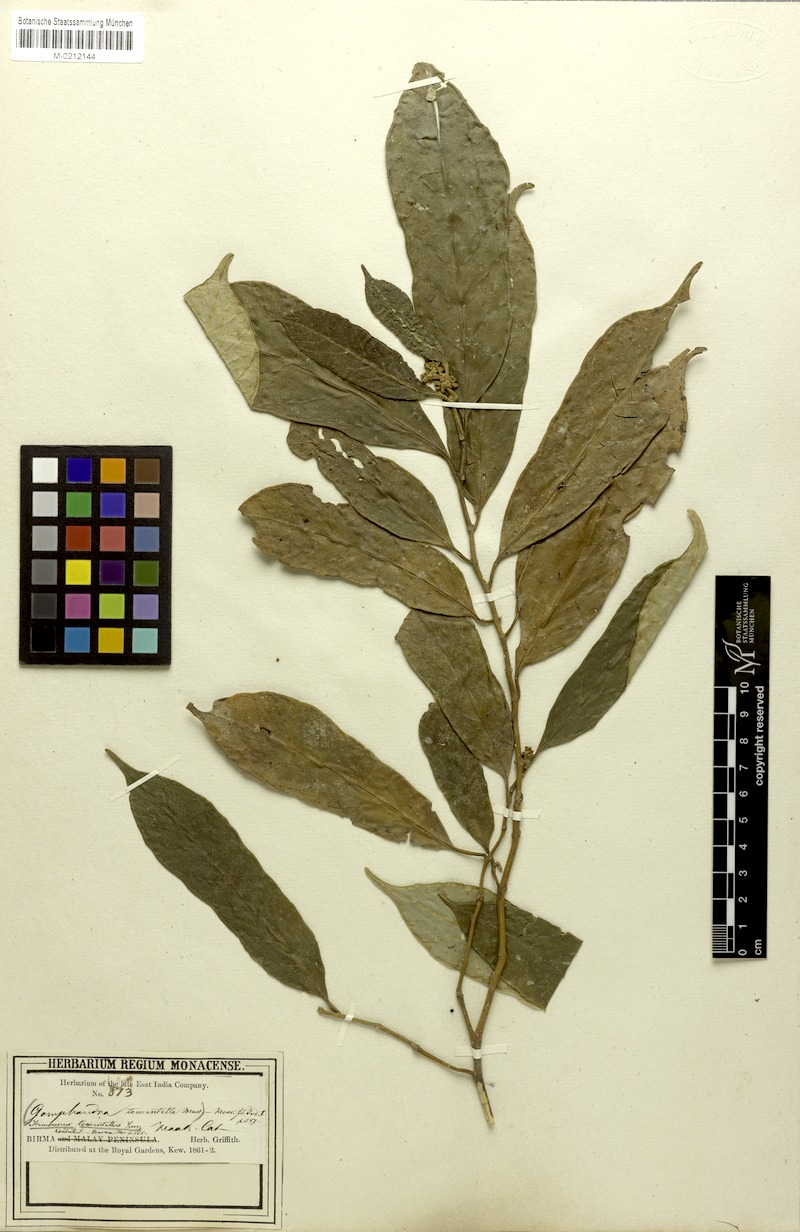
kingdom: Plantae
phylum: Tracheophyta
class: Magnoliopsida
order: Cardiopteridales
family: Stemonuraceae
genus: Gomphandra
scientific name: Gomphandra tomentella
